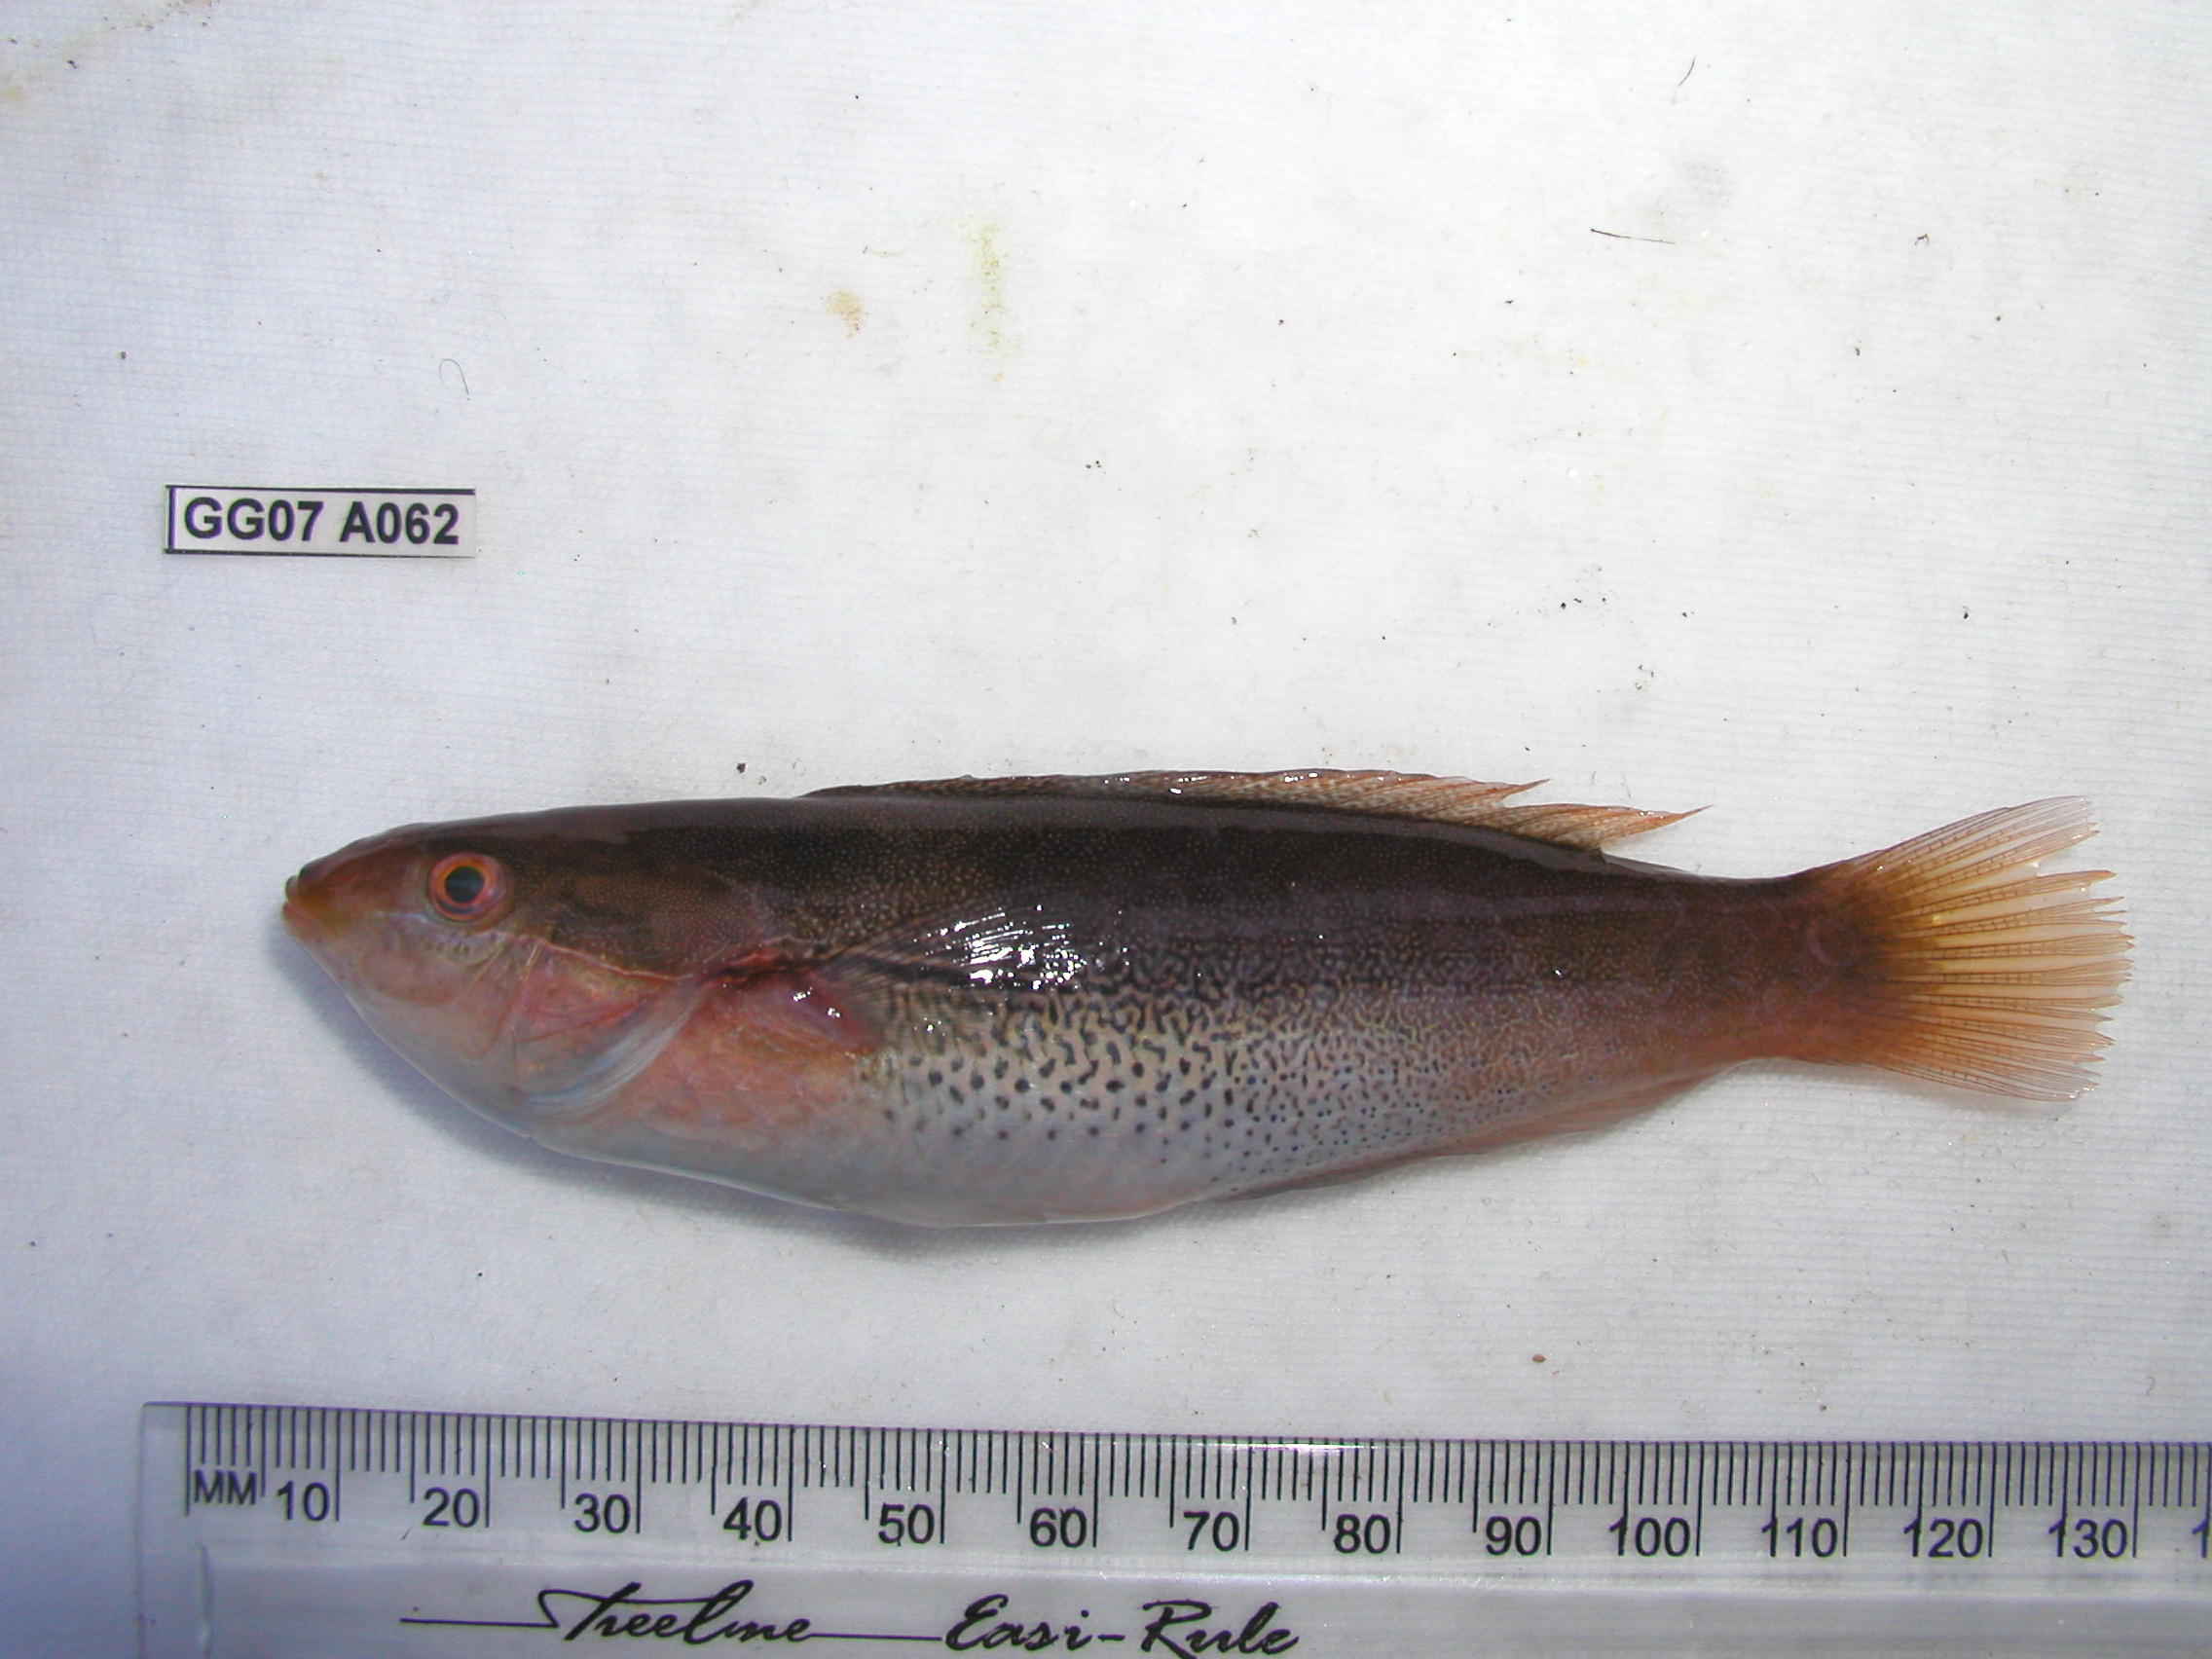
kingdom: Animalia
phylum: Chordata
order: Perciformes
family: Labridae
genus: Stethojulis
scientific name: Stethojulis interrupta
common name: Cutribbon wrasse
